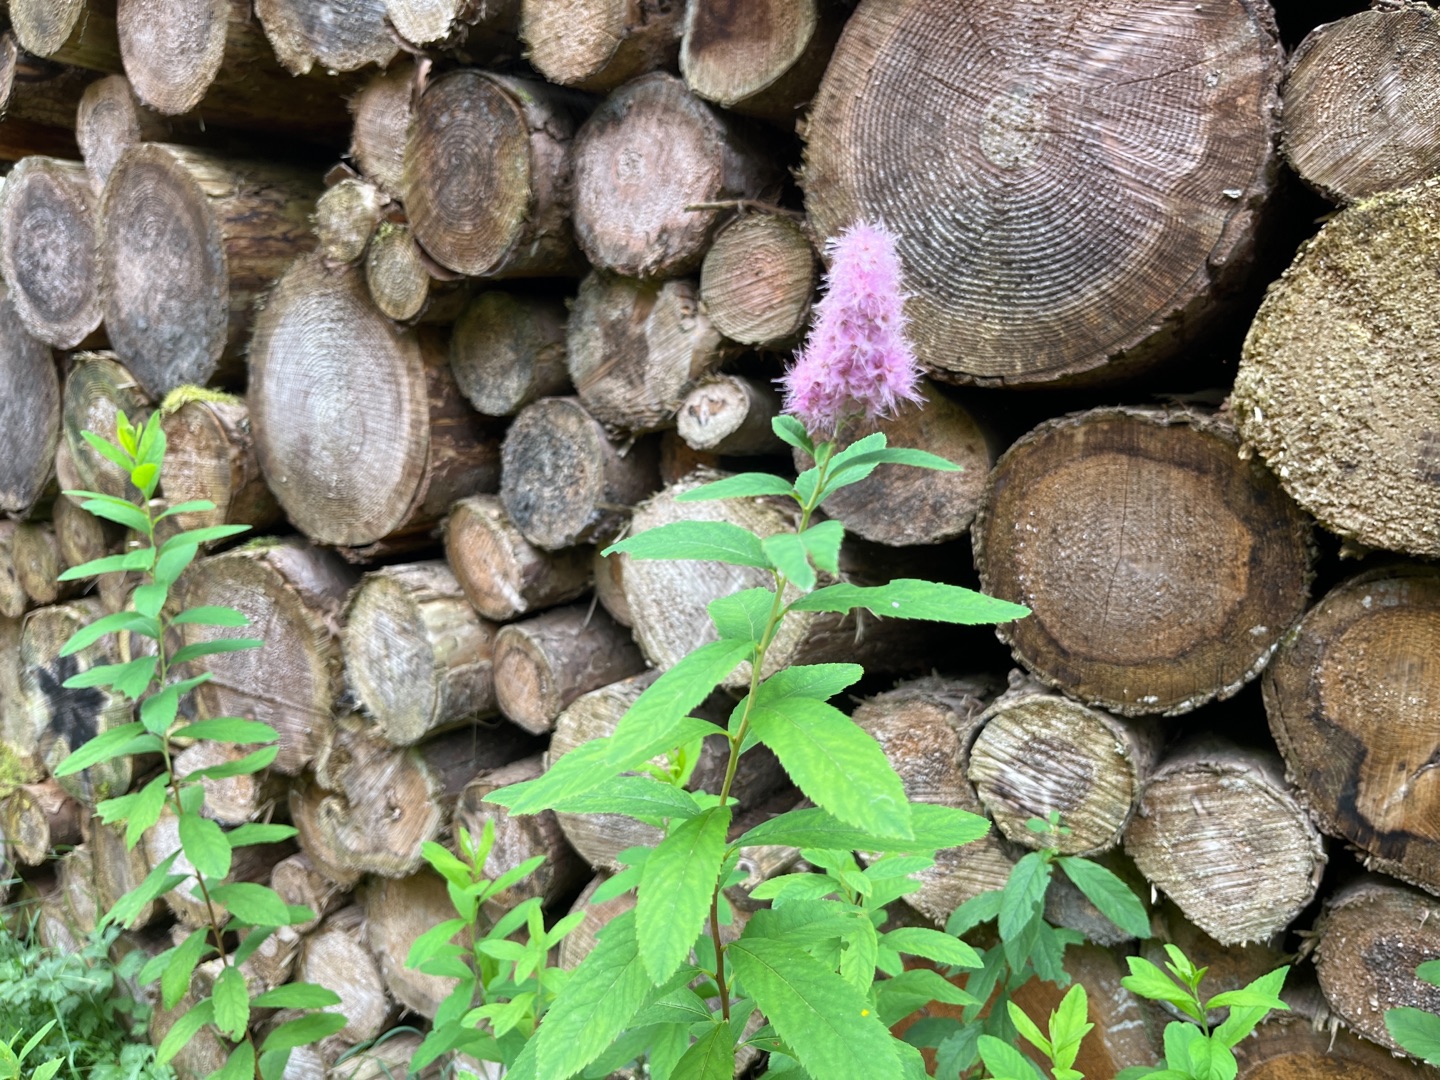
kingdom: Plantae
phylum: Tracheophyta
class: Magnoliopsida
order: Rosales
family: Rosaceae
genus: Spiraea
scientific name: Spiraea
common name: Spiræaslægten
